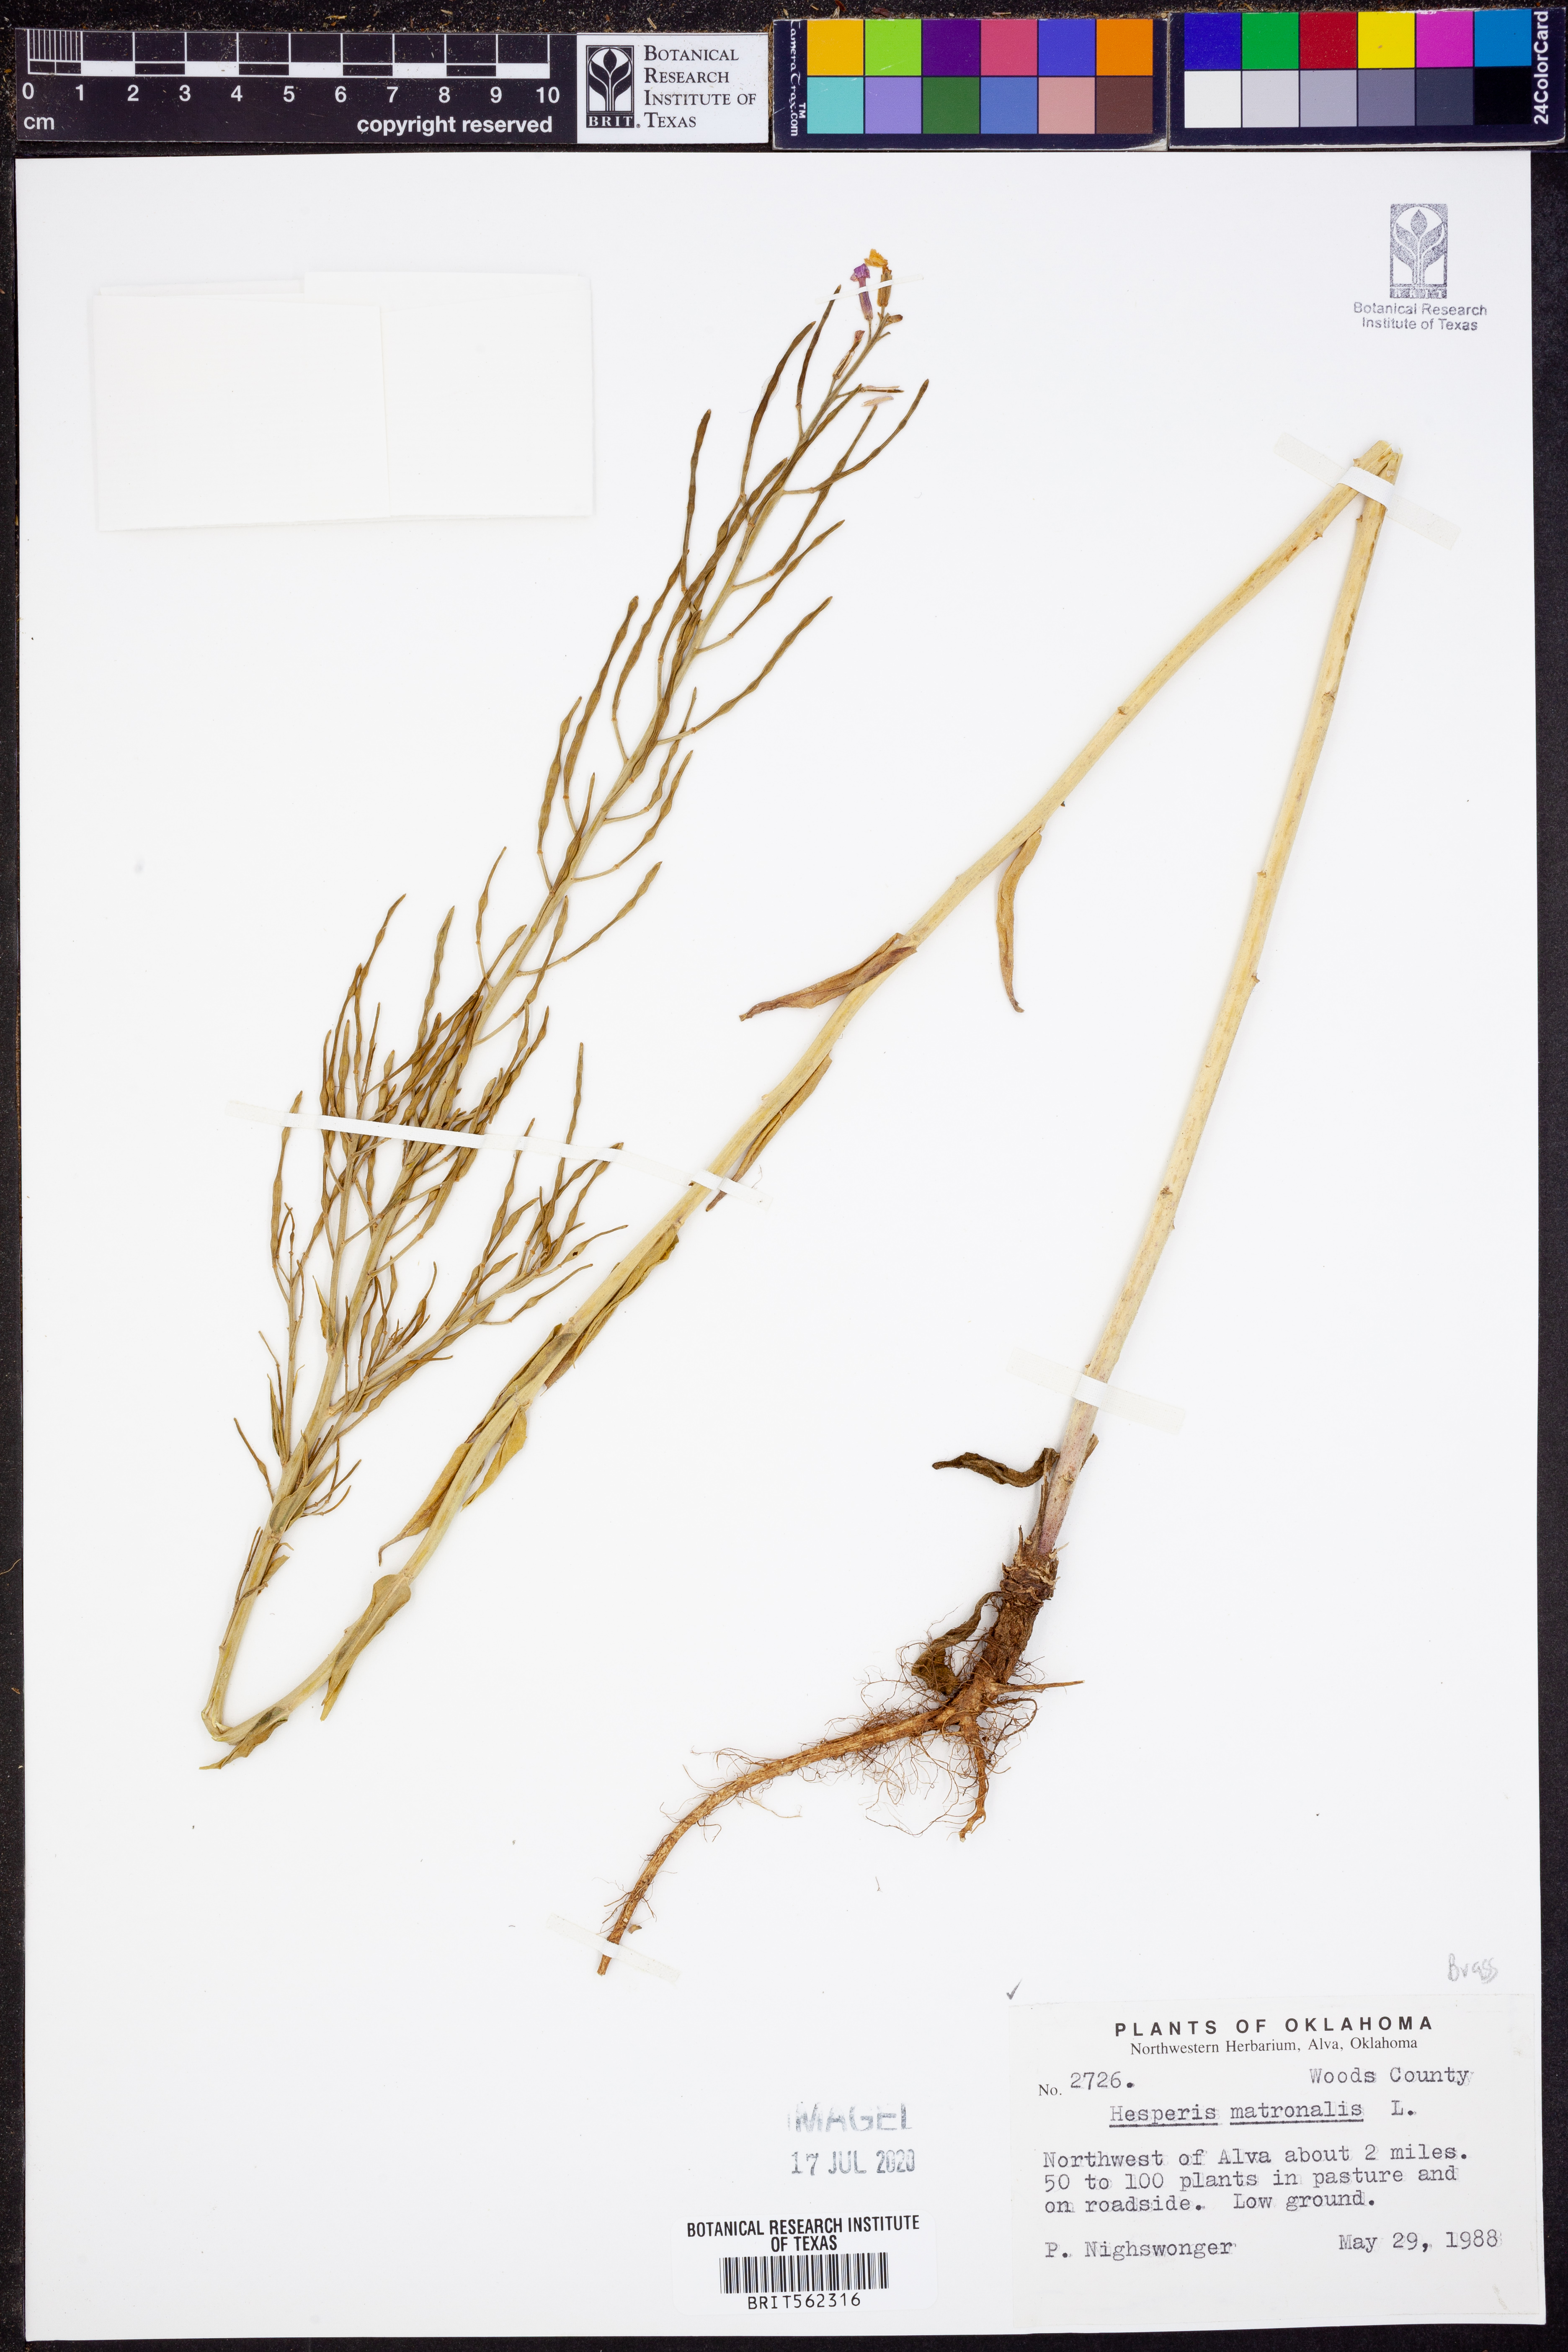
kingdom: Plantae
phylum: Tracheophyta
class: Magnoliopsida
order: Brassicales
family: Brassicaceae
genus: Hesperis
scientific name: Hesperis matronalis
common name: Dame's-violet
